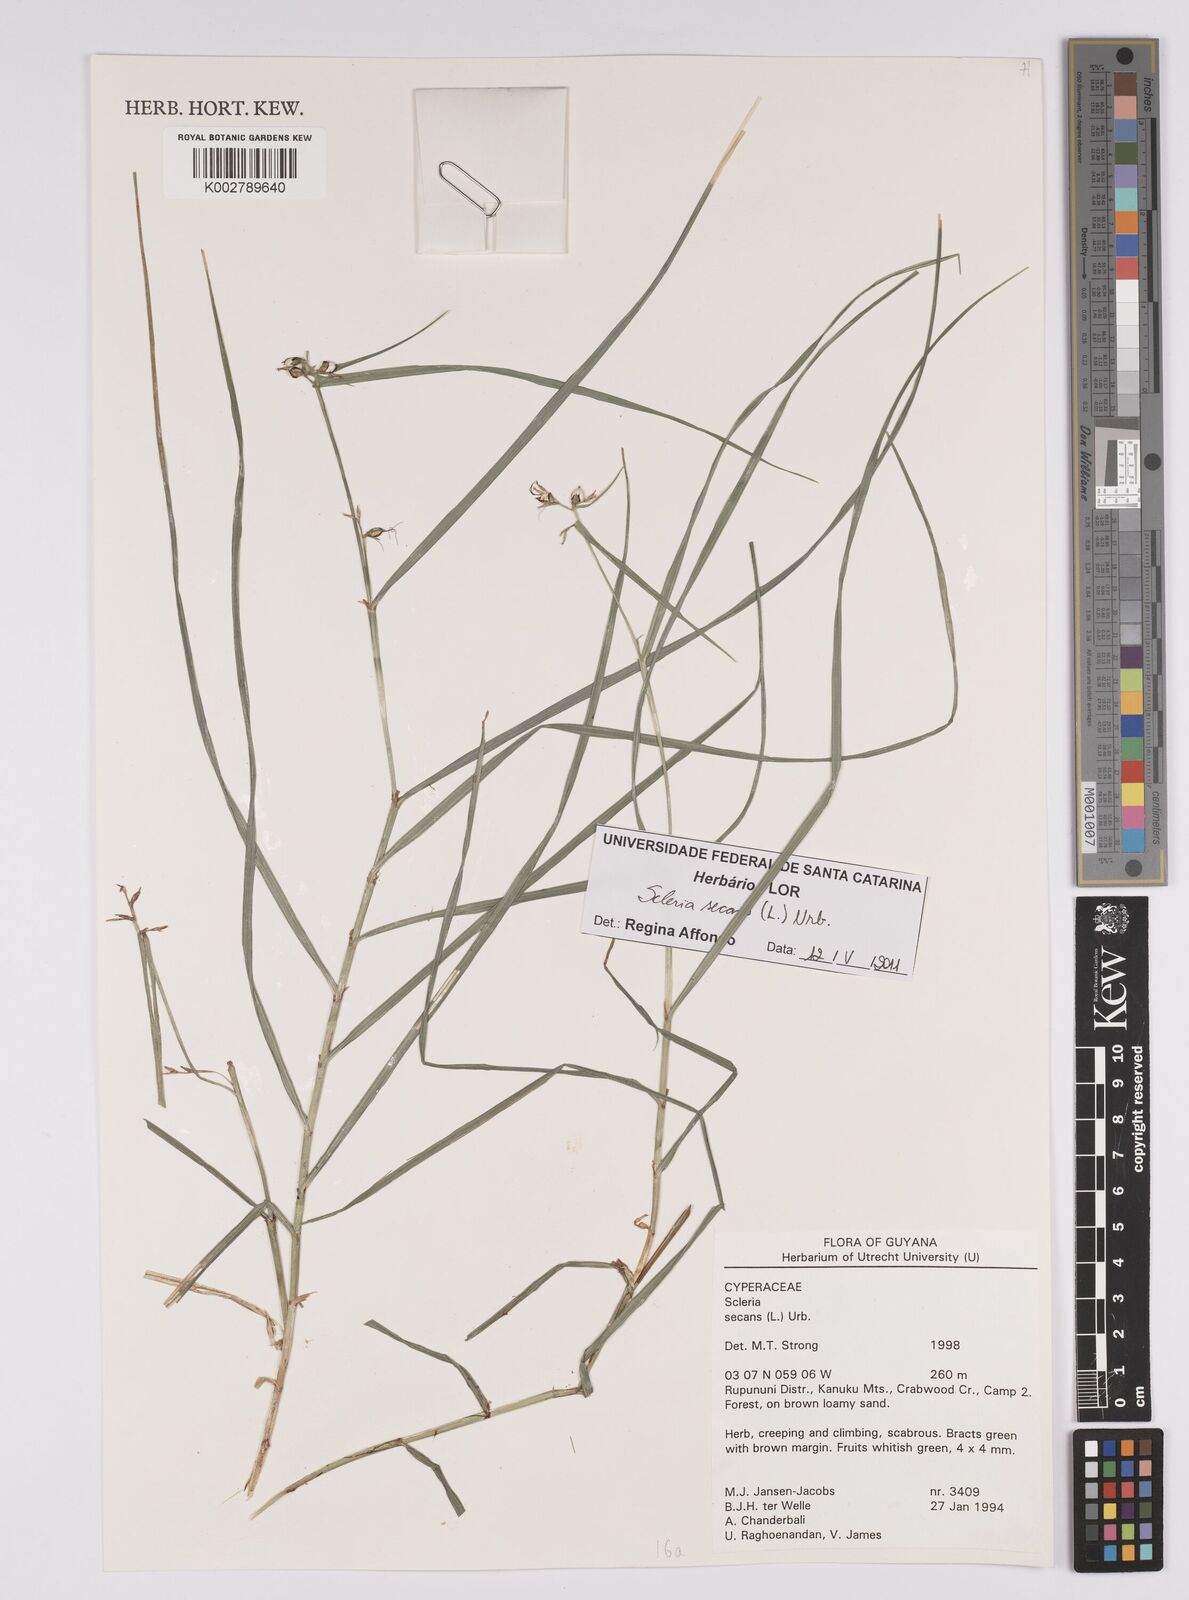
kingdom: Plantae
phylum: Tracheophyta
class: Liliopsida
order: Poales
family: Cyperaceae
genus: Scleria
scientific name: Scleria secans
